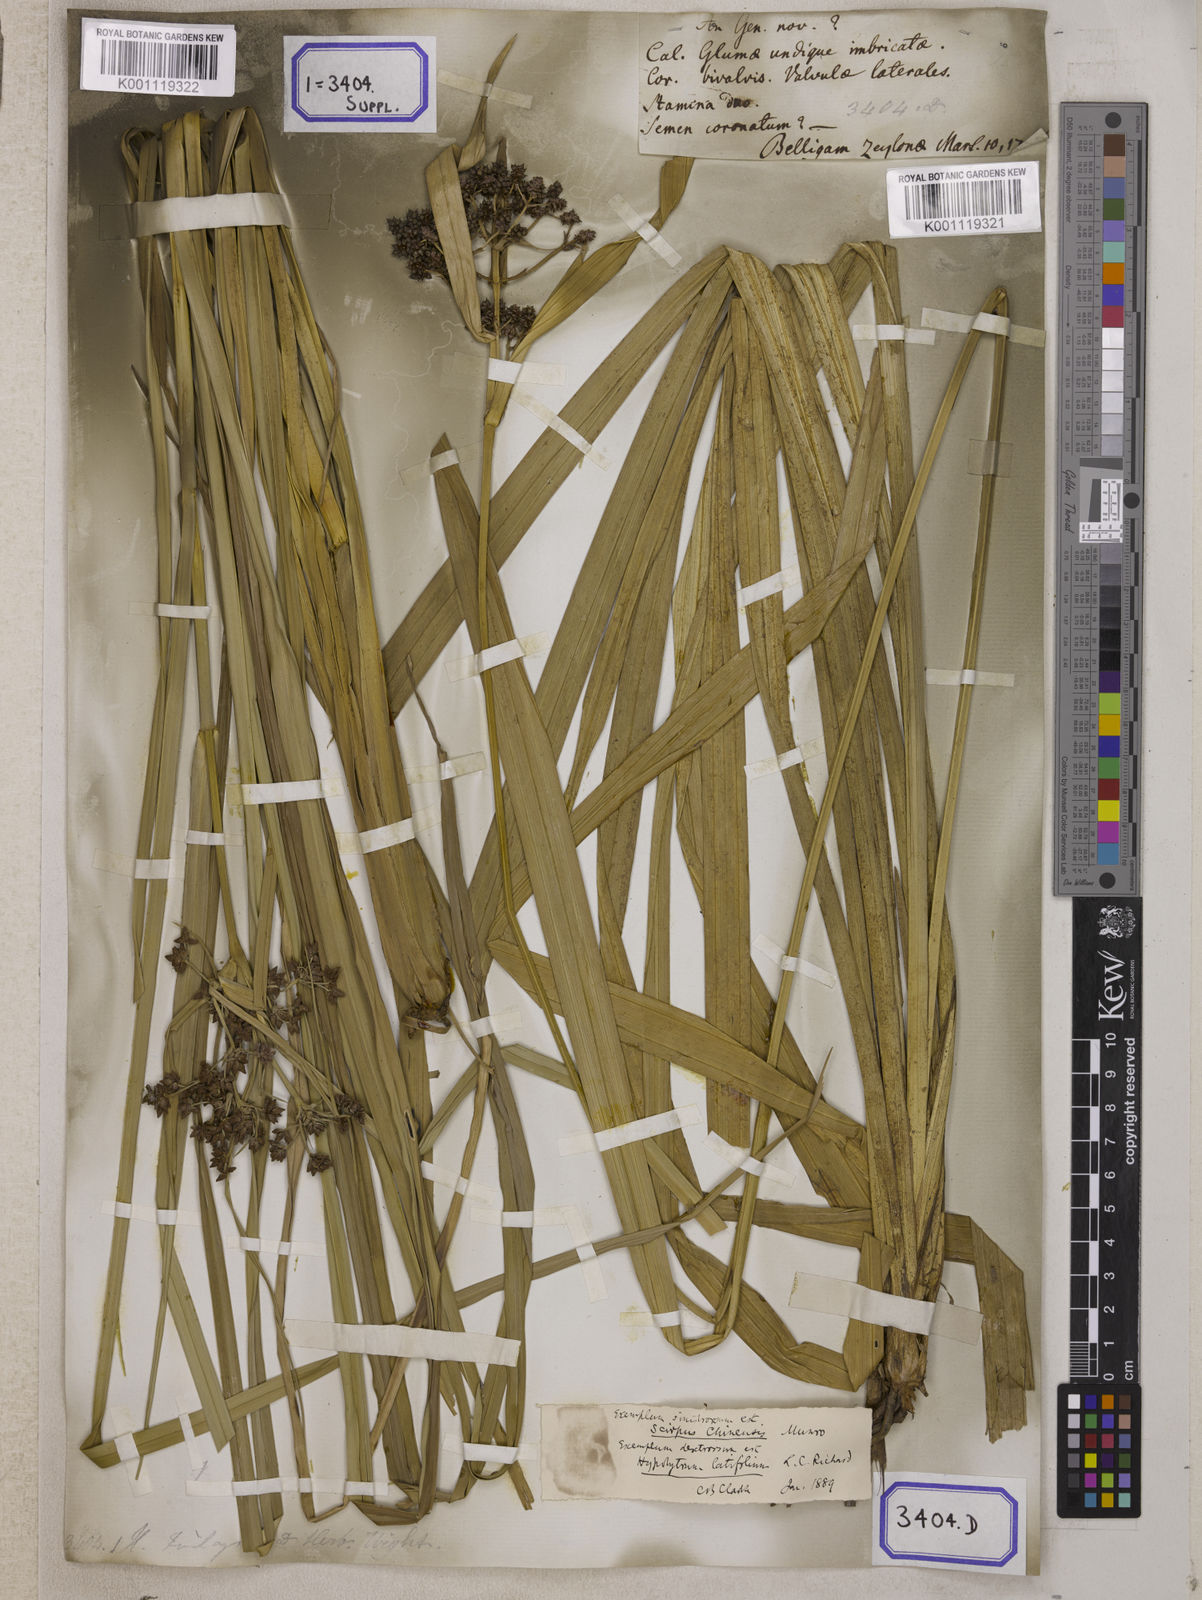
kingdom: Plantae
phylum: Tracheophyta
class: Liliopsida
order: Poales
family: Cyperaceae
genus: Hypolytrum
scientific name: Hypolytrum
